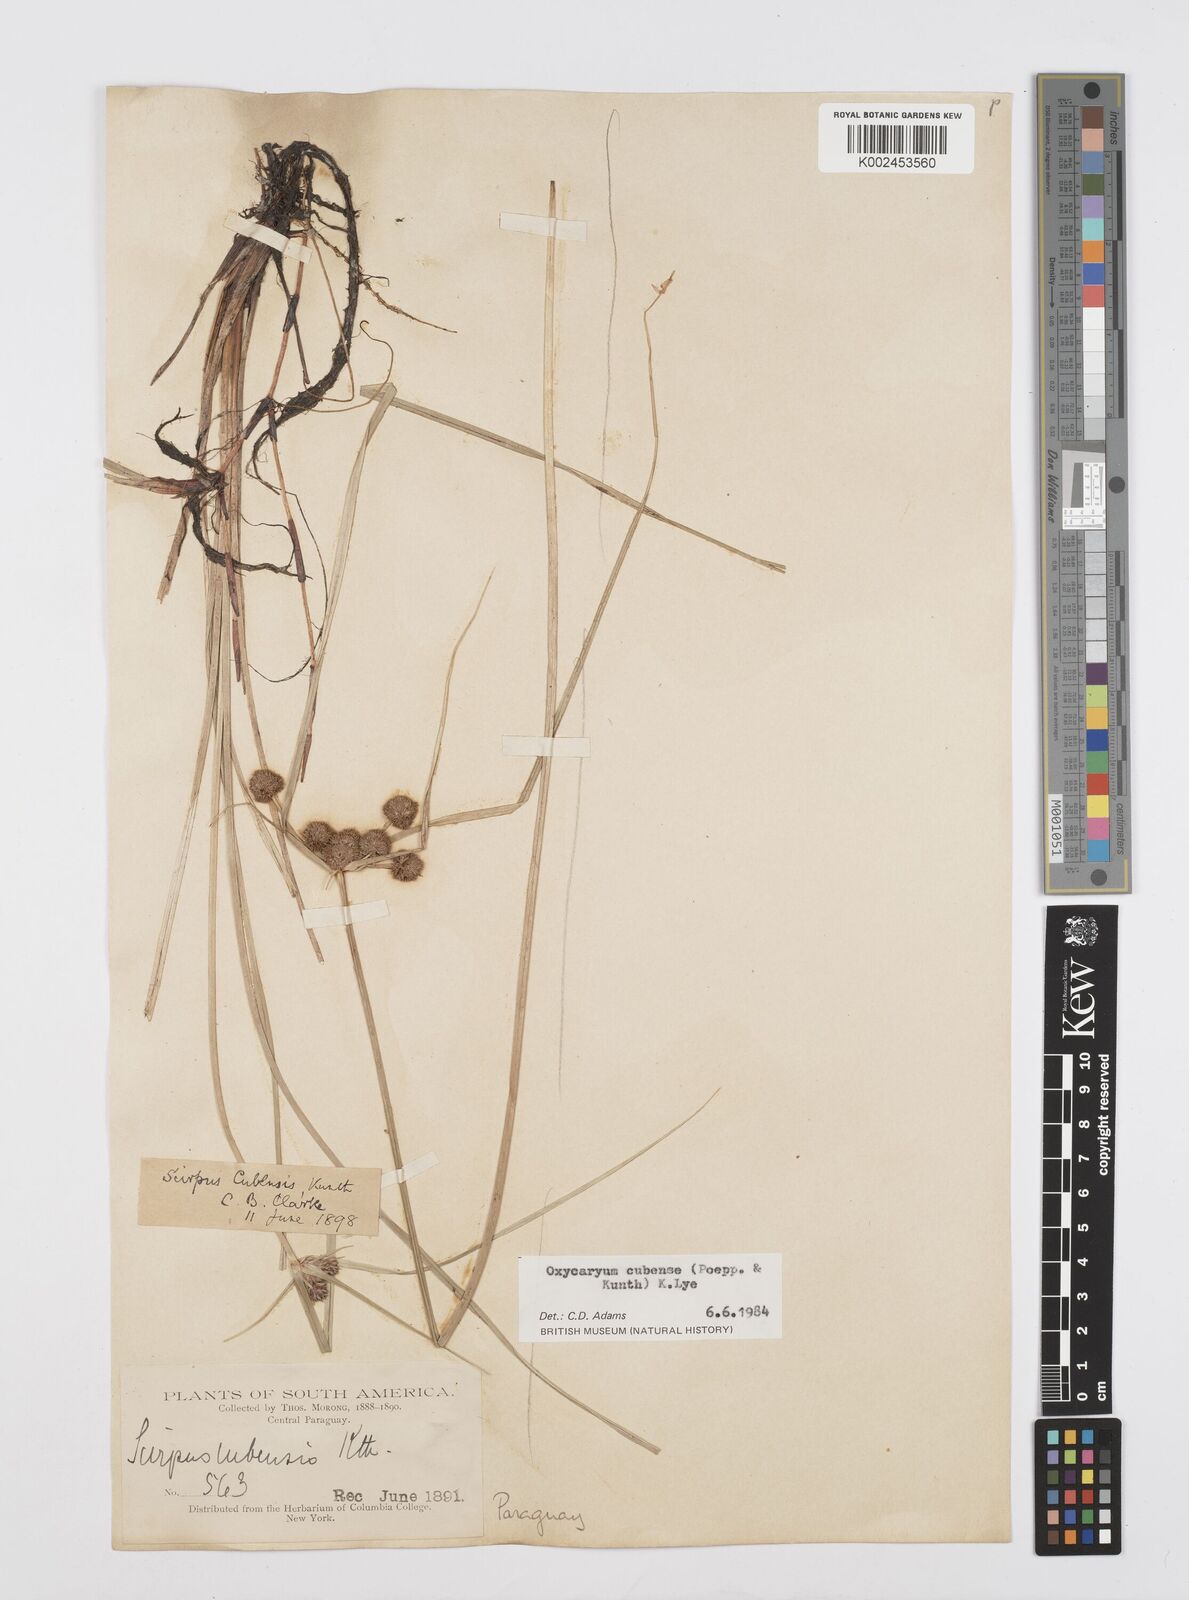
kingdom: Plantae
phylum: Tracheophyta
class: Liliopsida
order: Poales
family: Cyperaceae
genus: Cyperus
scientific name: Cyperus elegans
